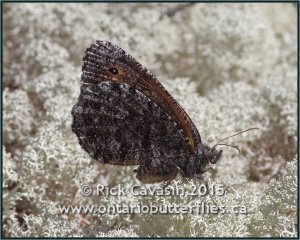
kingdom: Animalia
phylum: Arthropoda
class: Insecta
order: Lepidoptera
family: Nymphalidae
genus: Oeneis
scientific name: Oeneis jutta
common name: Jutta Arctic
